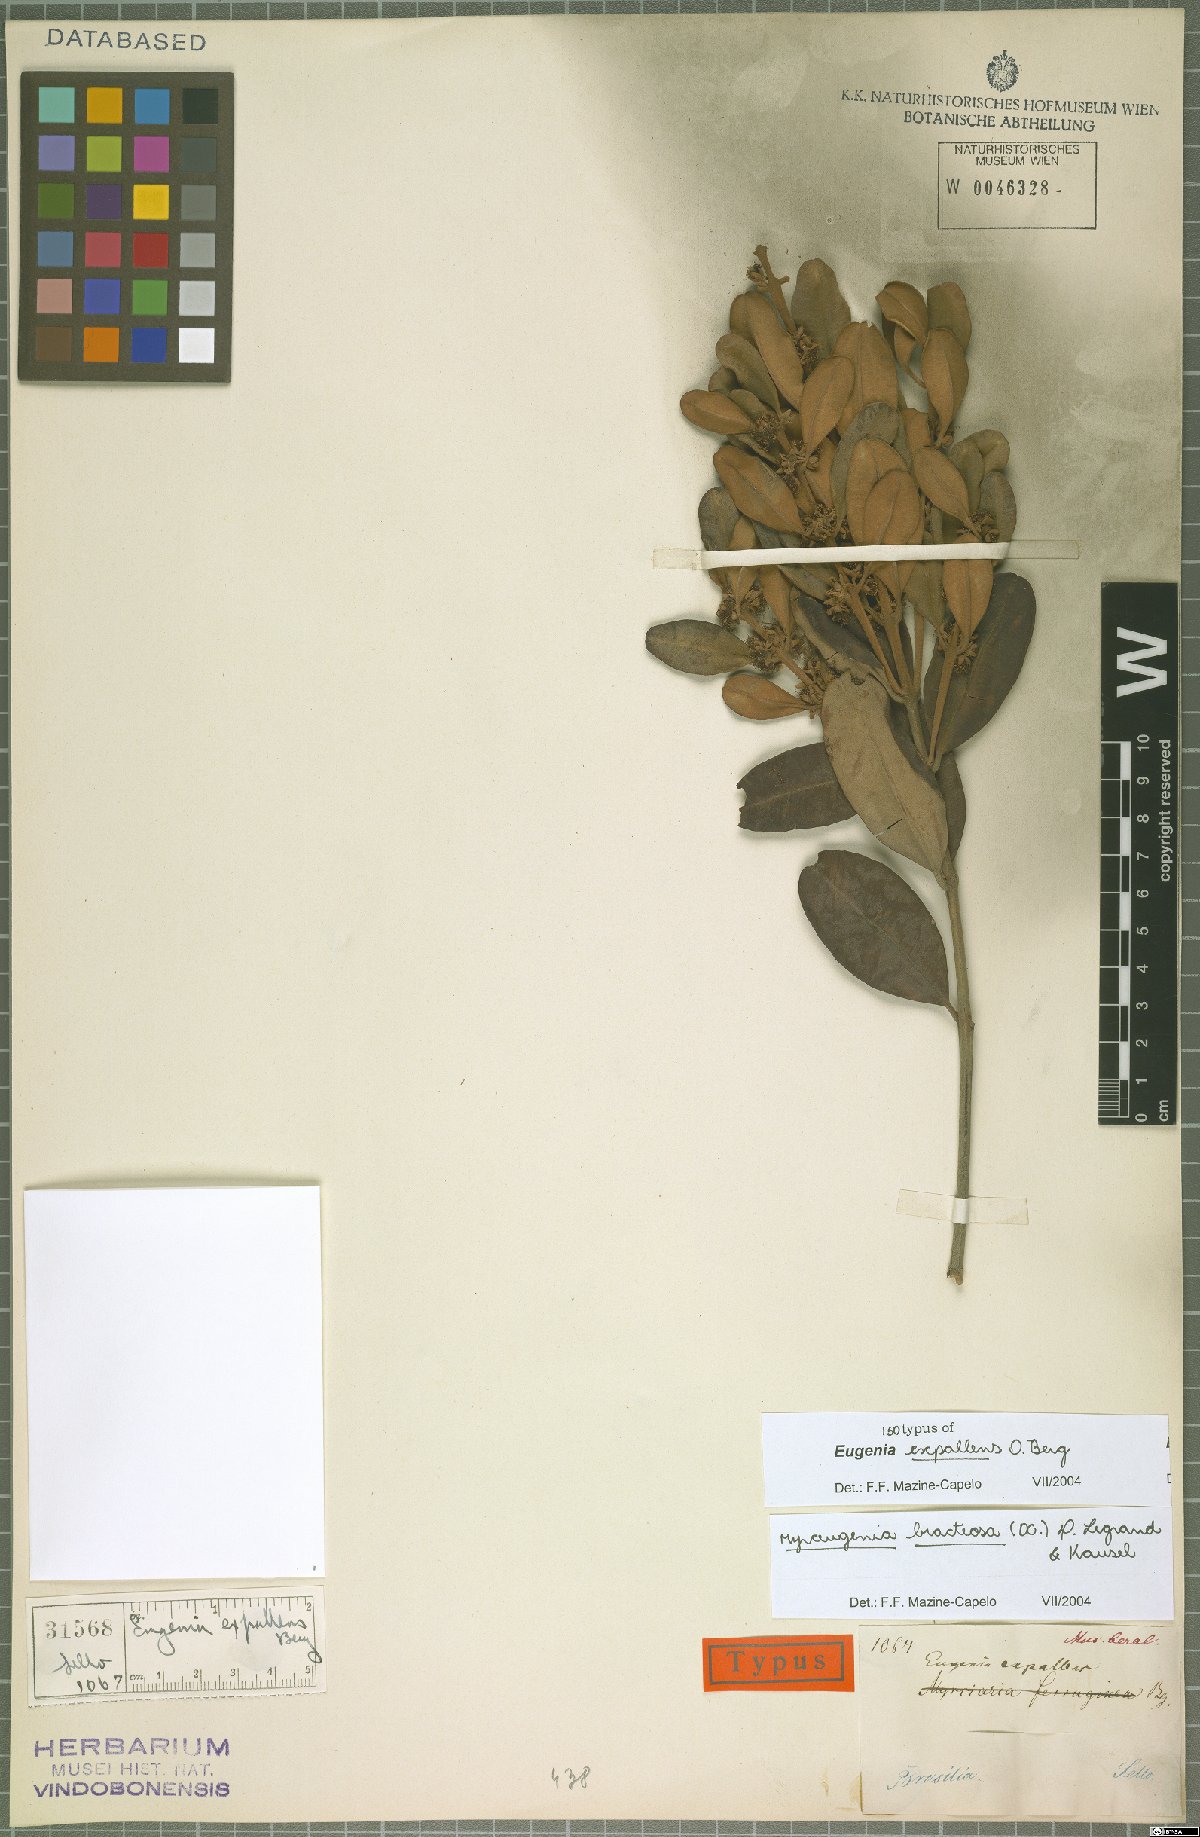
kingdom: Plantae
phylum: Tracheophyta
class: Magnoliopsida
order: Myrtales
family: Myrtaceae
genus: Myrceugenia
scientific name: Myrceugenia bracteosa
